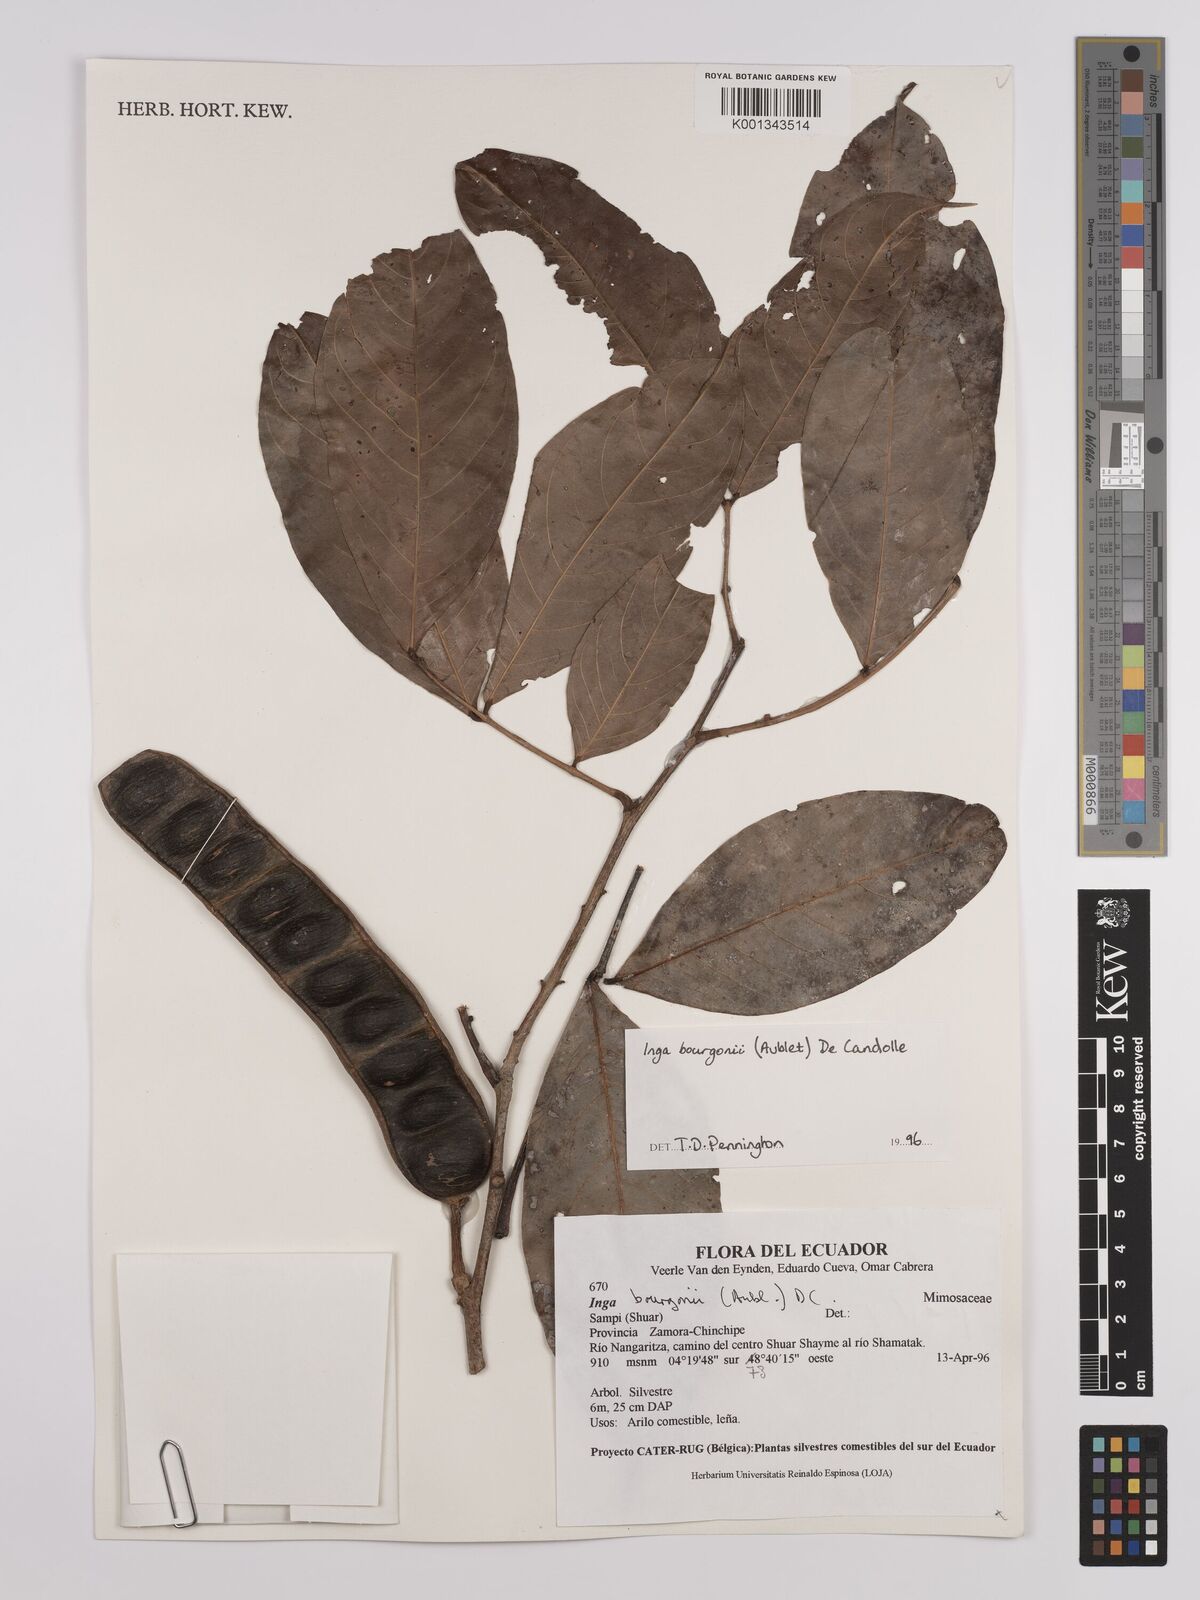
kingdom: Plantae
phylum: Tracheophyta
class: Magnoliopsida
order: Fabales
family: Fabaceae
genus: Inga
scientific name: Inga bourgoni
